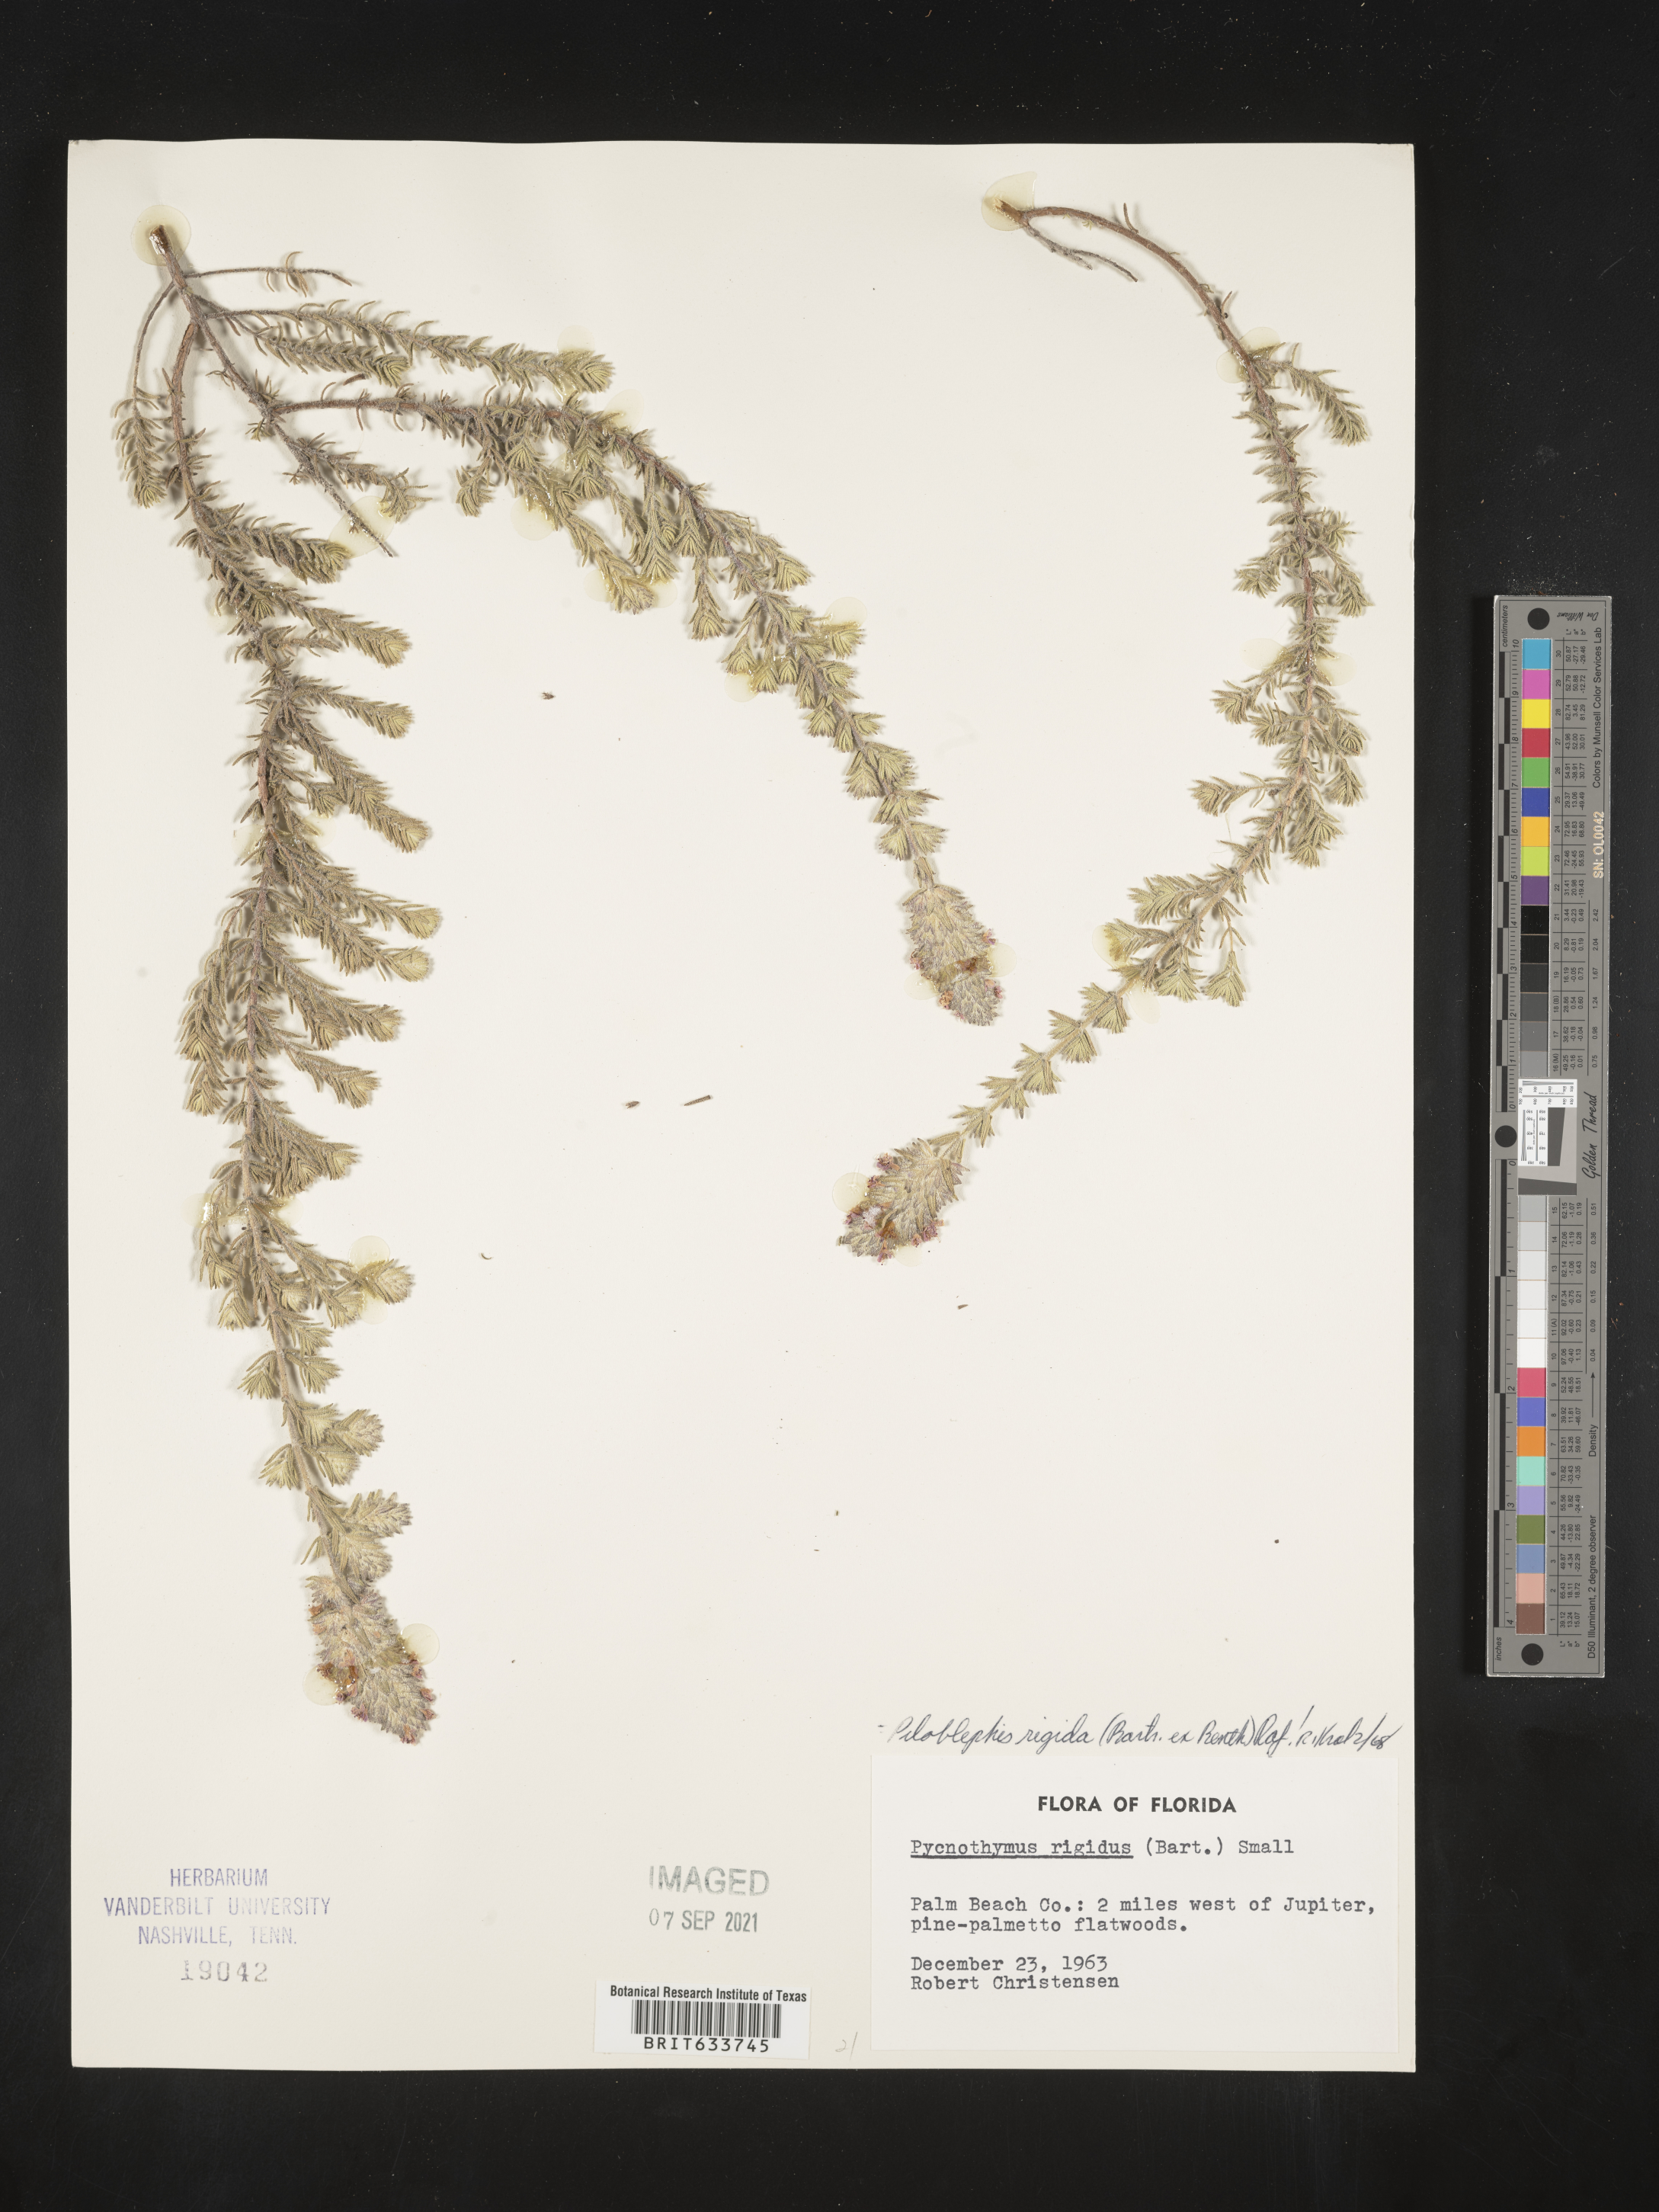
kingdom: Plantae
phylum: Tracheophyta
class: Magnoliopsida
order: Lamiales
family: Lamiaceae
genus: Piloblephis
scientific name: Piloblephis rigida
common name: Wild pennyroyal
